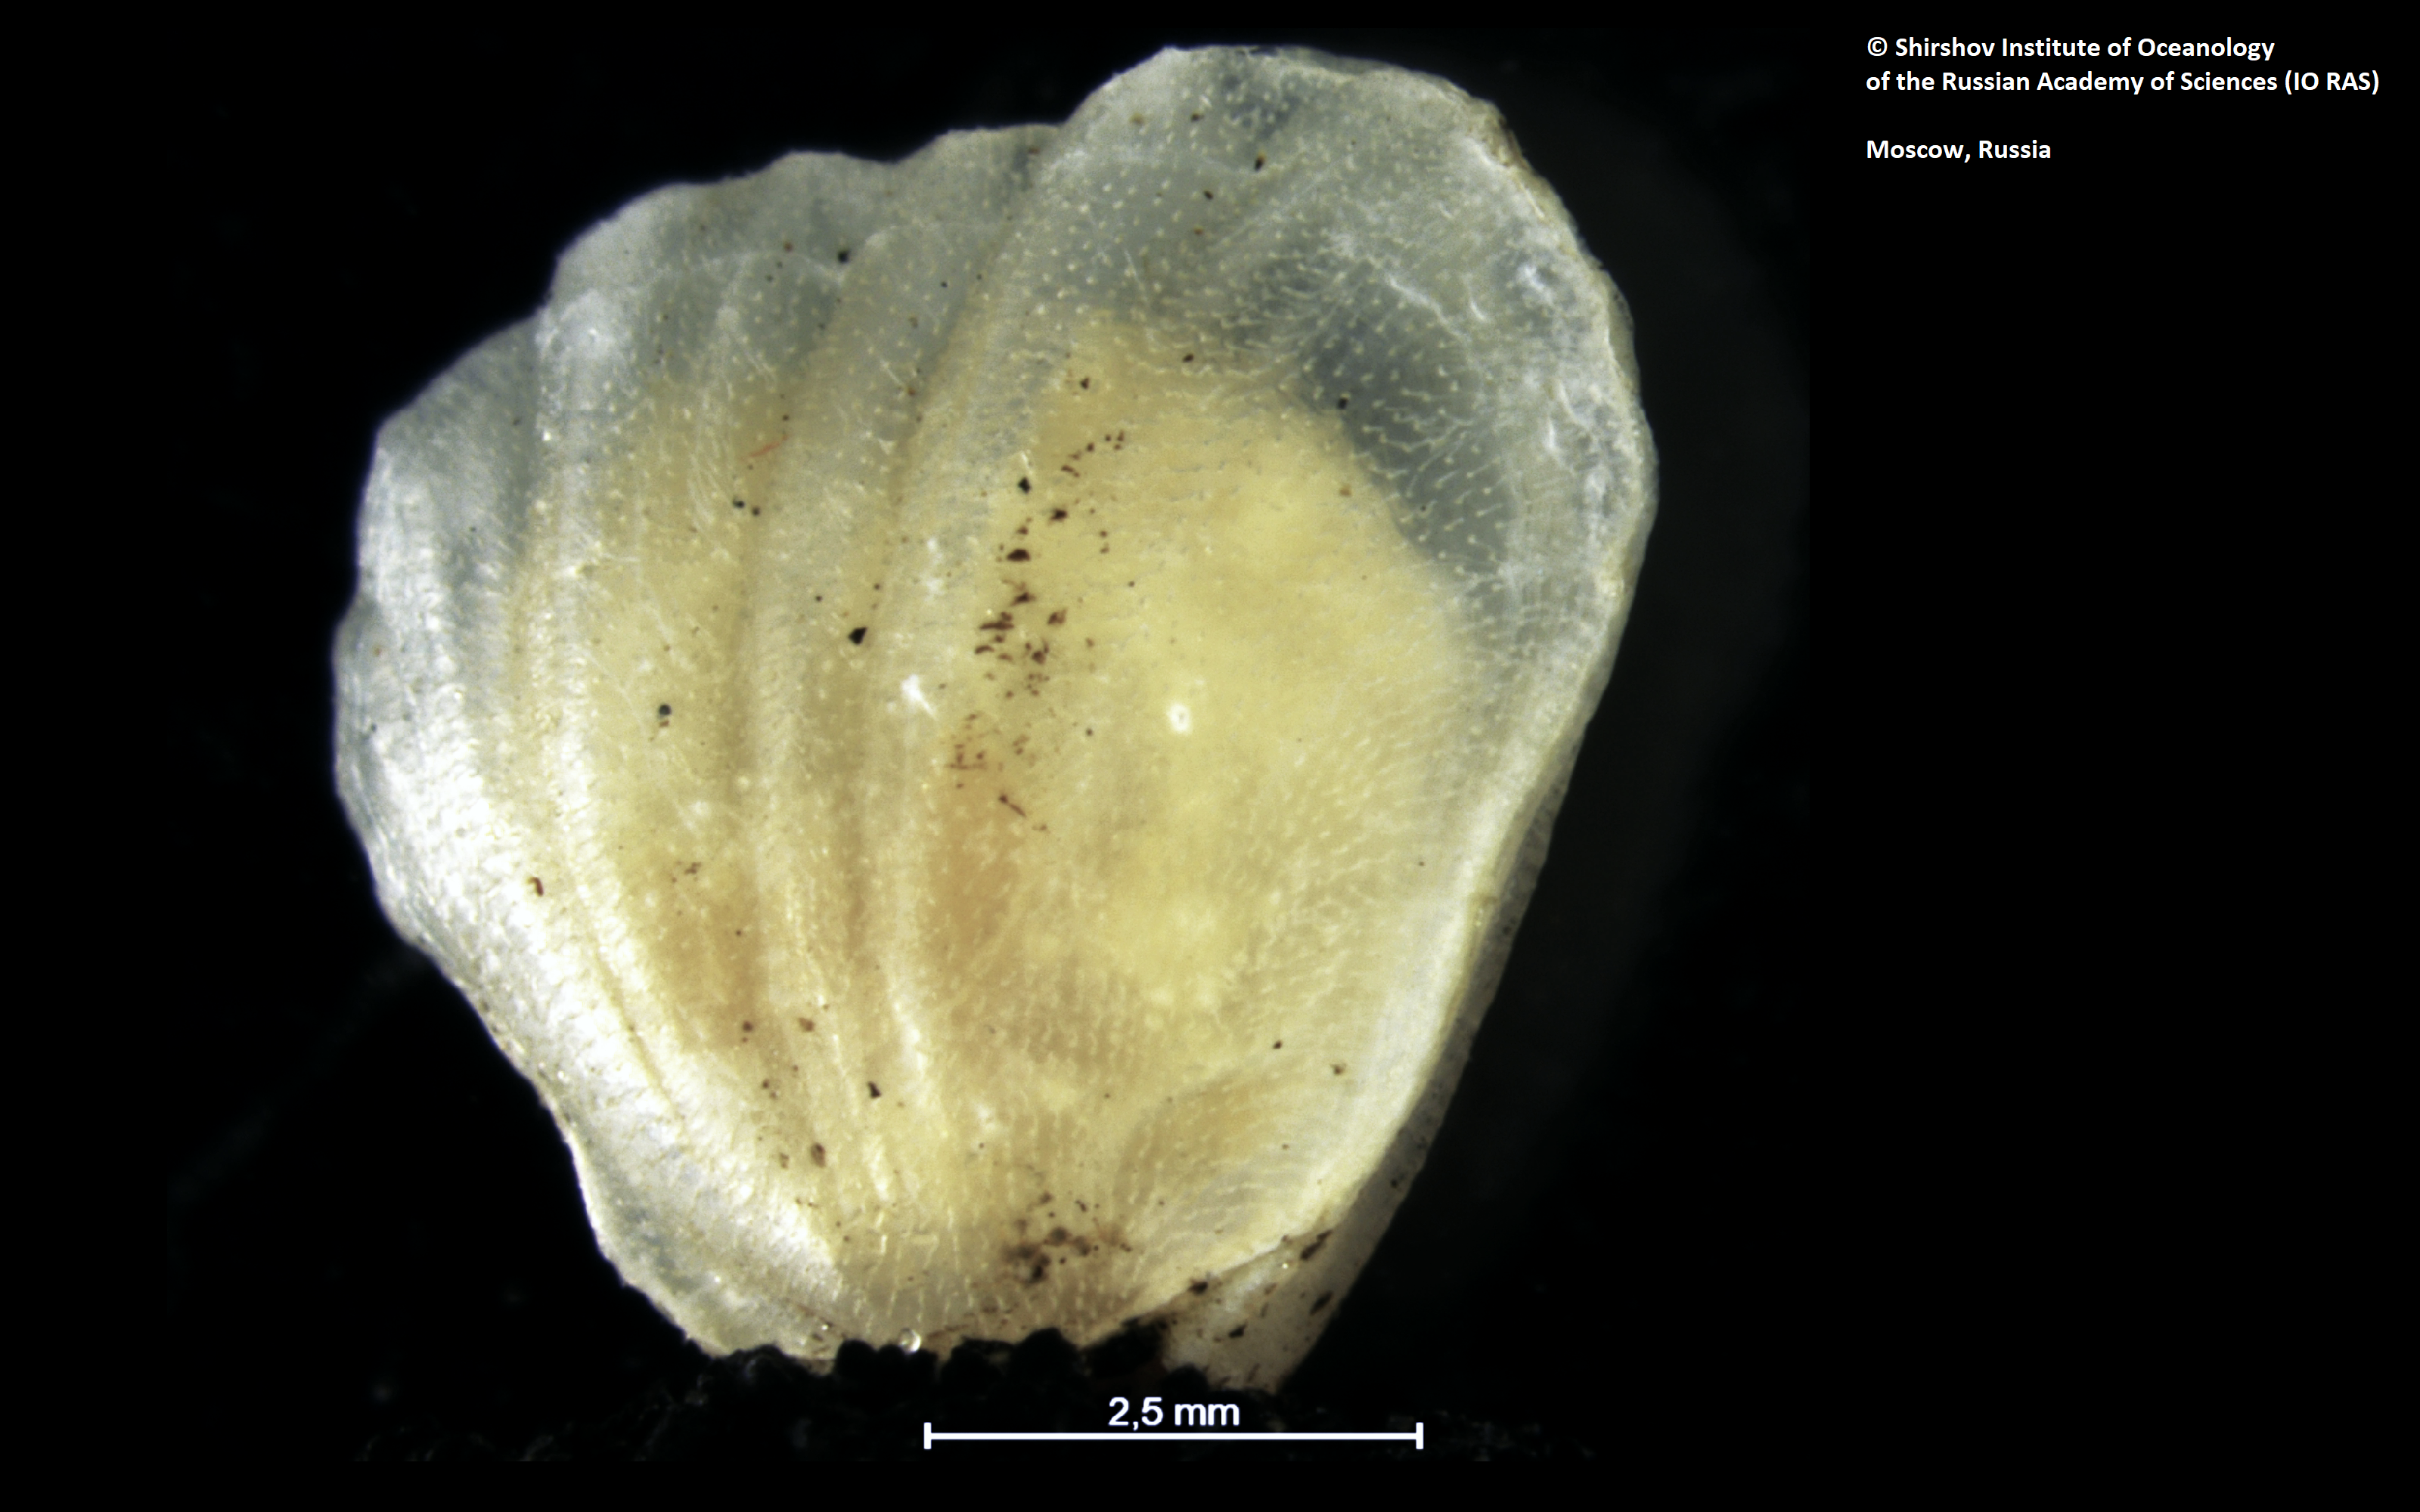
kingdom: Animalia
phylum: Brachiopoda
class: Rhynchonellata
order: Terebratulida
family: Chlidonophoridae
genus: Melvicalathis
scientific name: Melvicalathis macroctena
